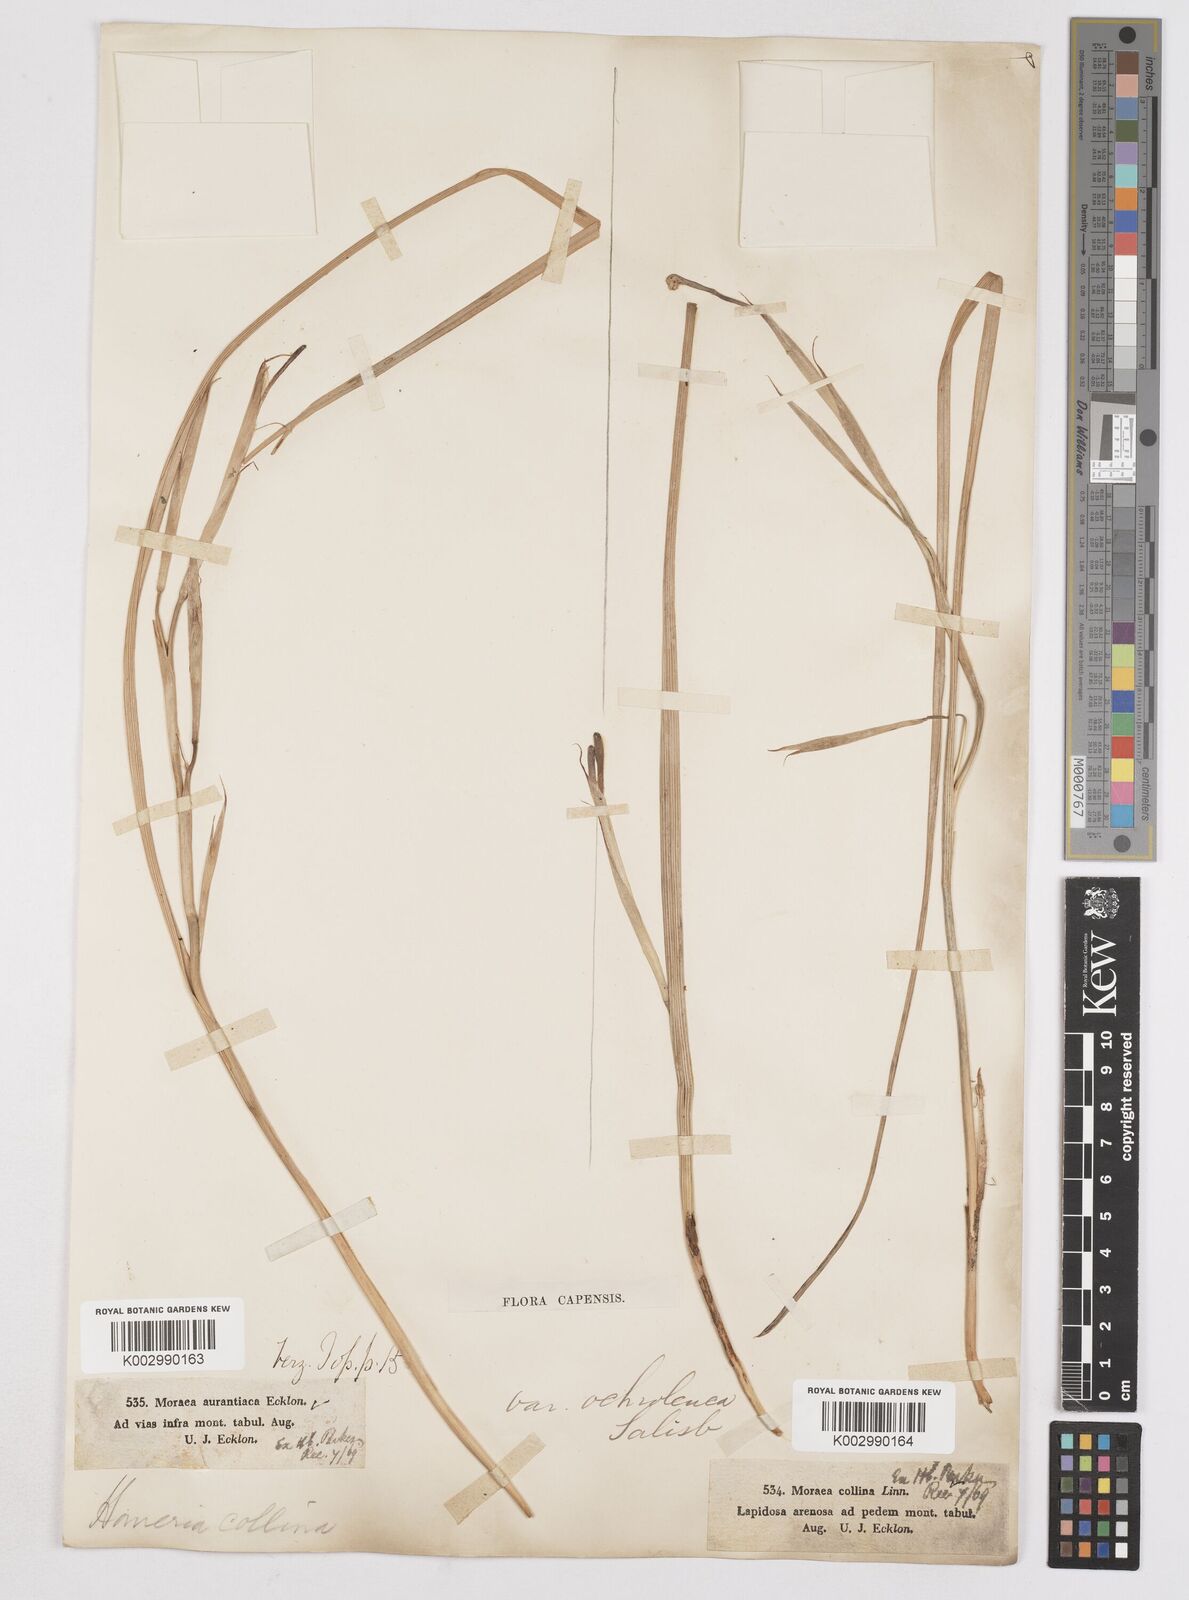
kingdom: Plantae
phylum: Tracheophyta
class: Liliopsida
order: Asparagales
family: Iridaceae
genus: Moraea
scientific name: Moraea collina
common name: Cape-tulip
